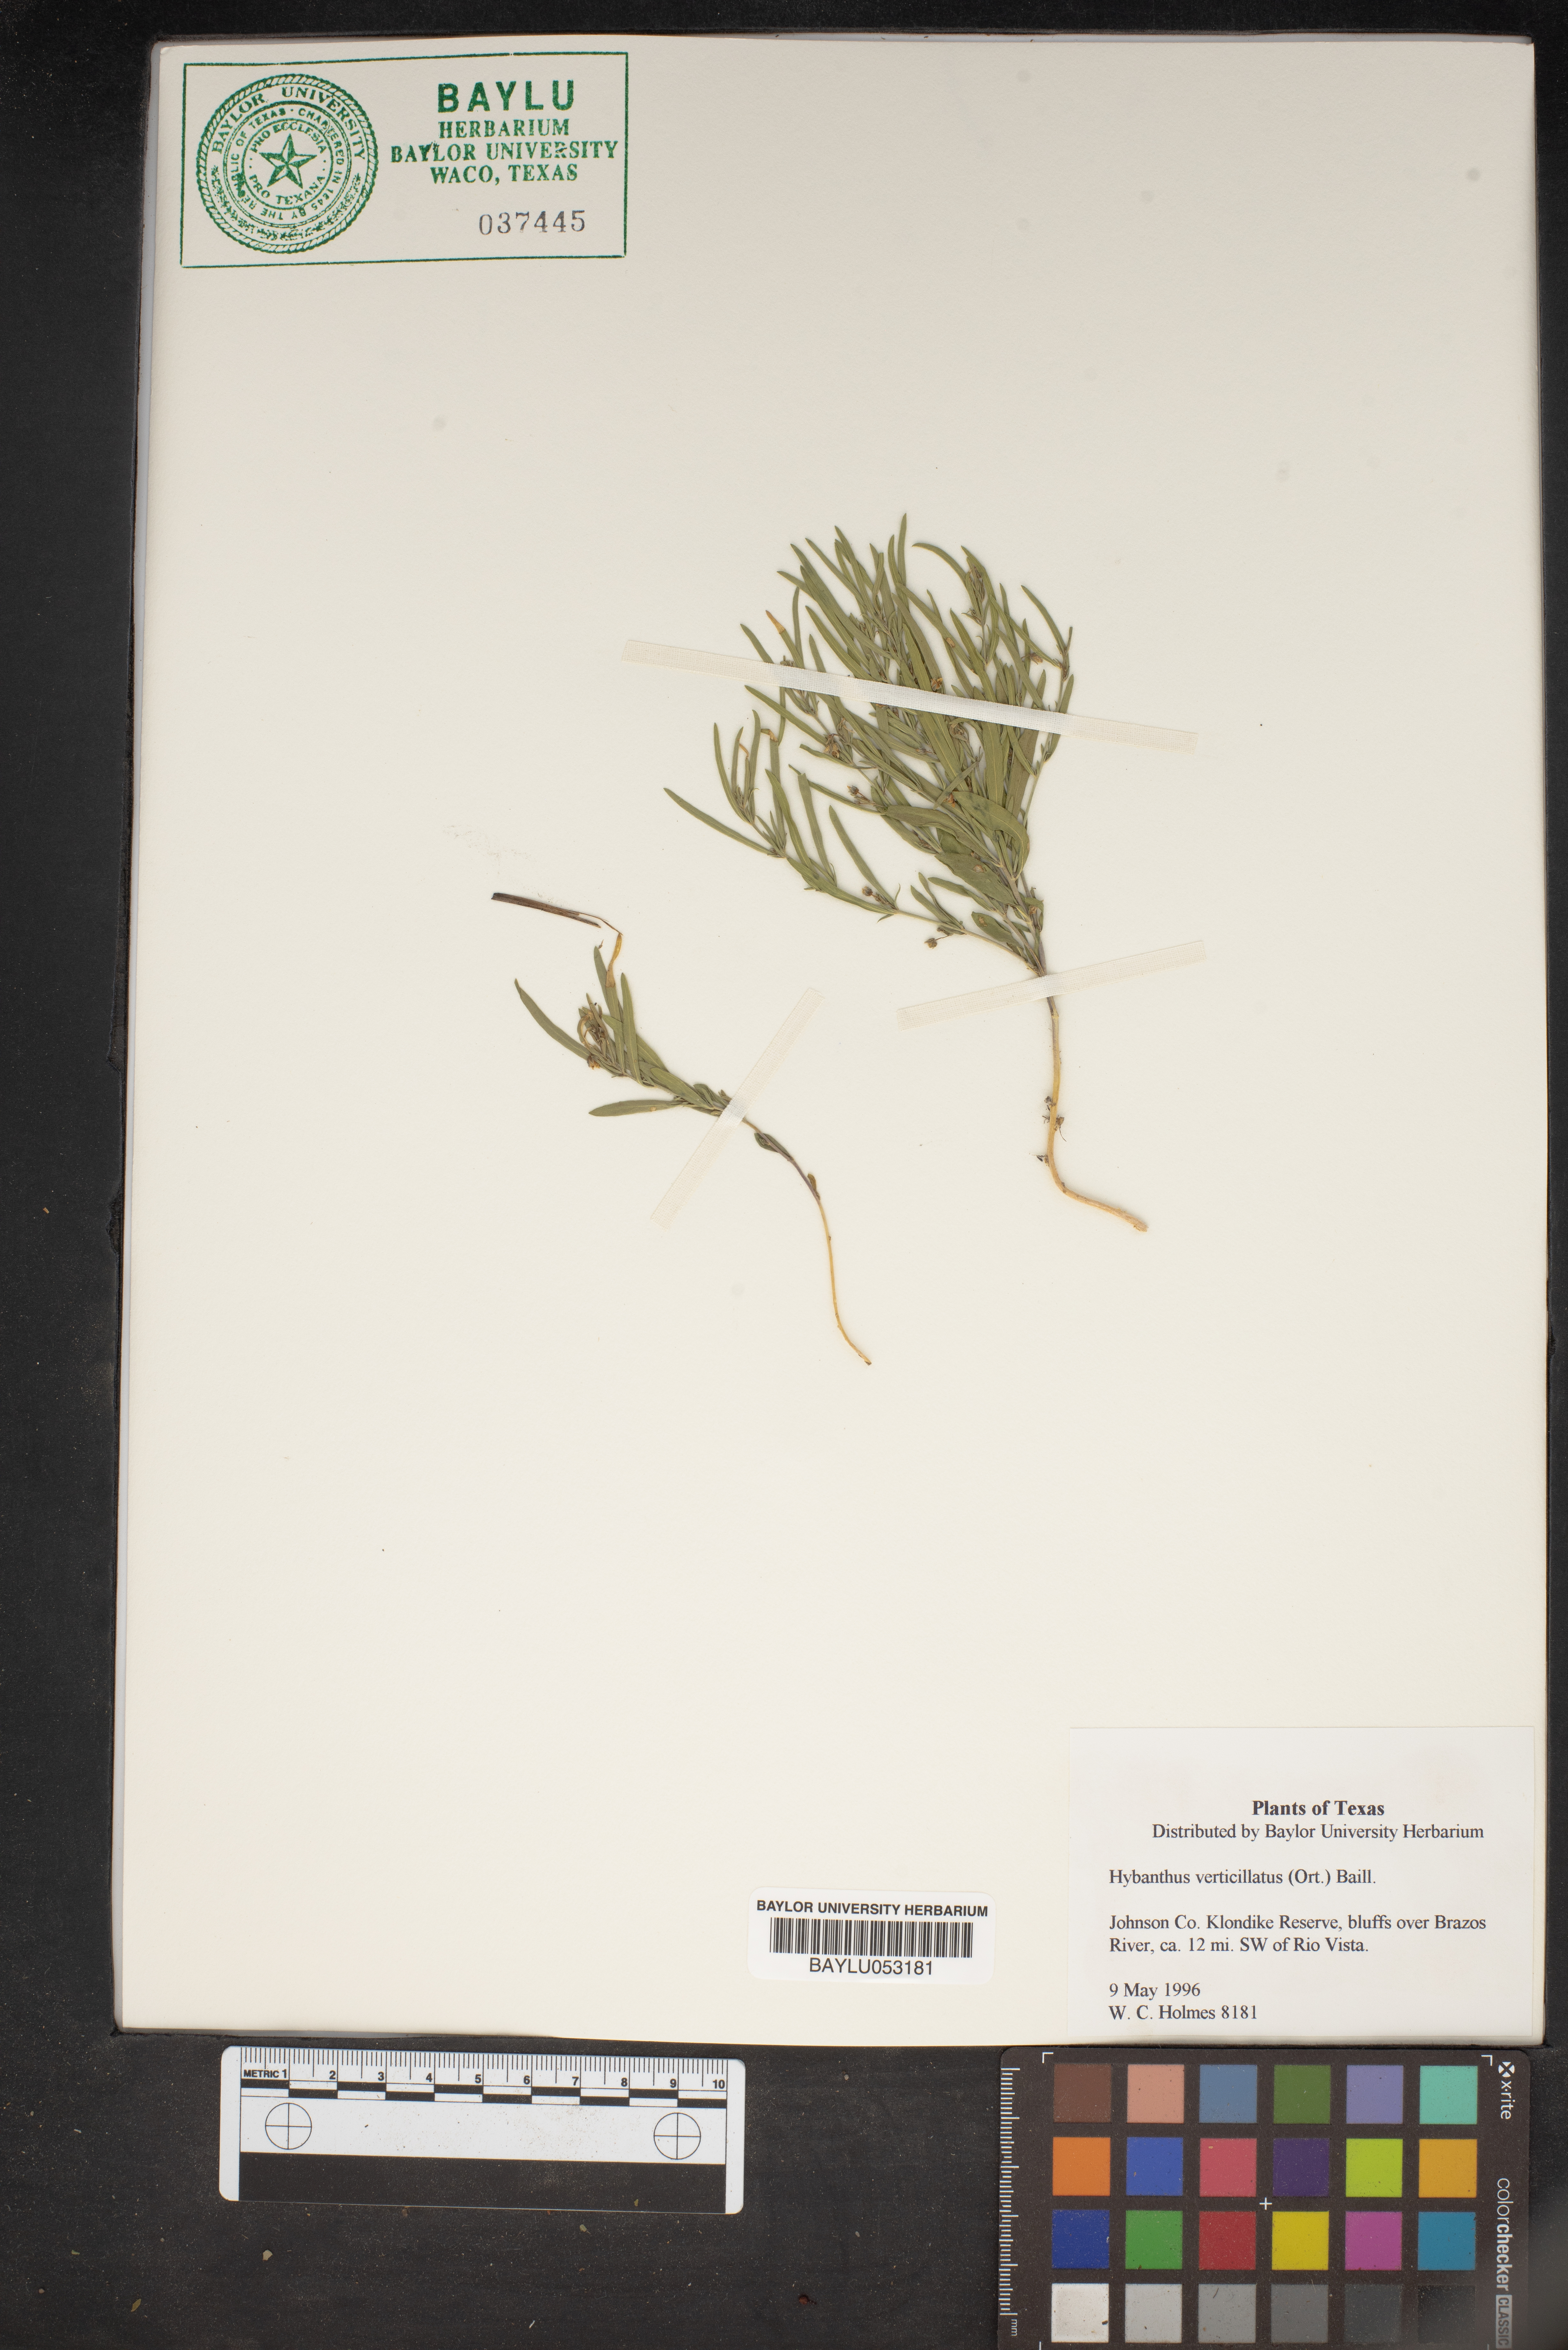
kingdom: Plantae
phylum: Tracheophyta
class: Magnoliopsida
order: Malpighiales
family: Violaceae
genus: Pombalia
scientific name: Pombalia verticillata
